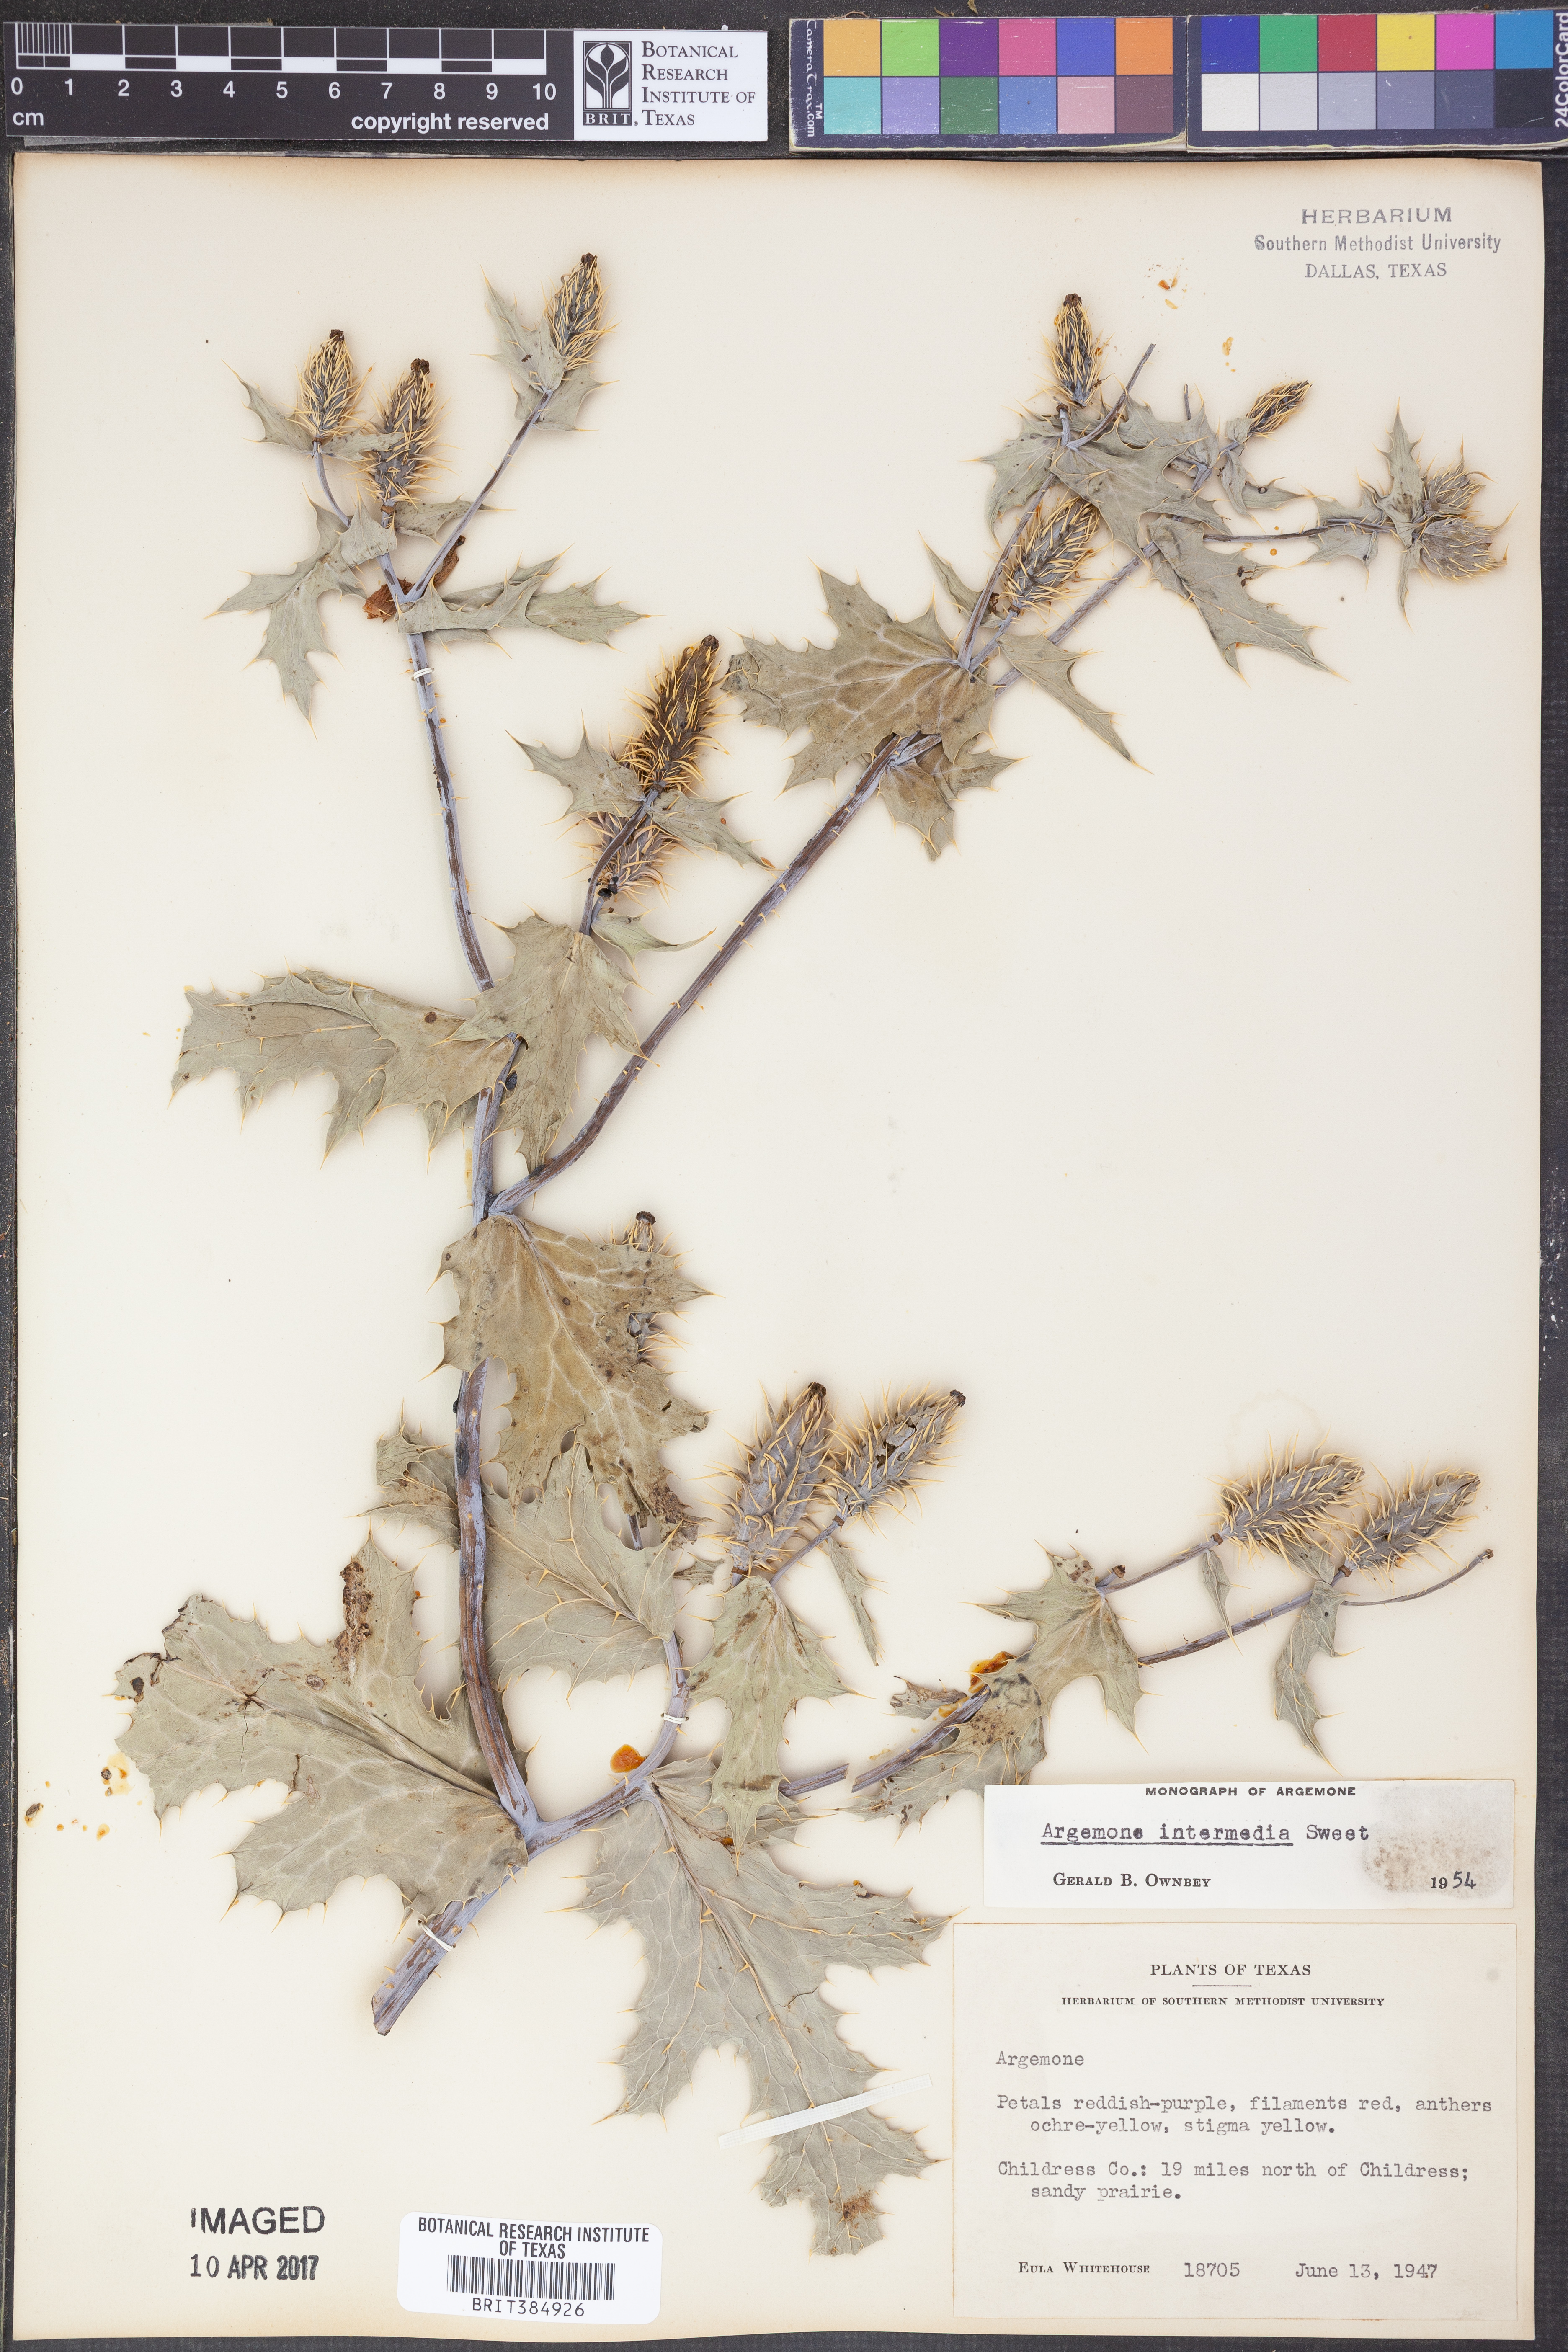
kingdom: Plantae
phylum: Tracheophyta
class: Magnoliopsida
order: Ranunculales
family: Papaveraceae
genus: Argemone
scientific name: Argemone intermedia
